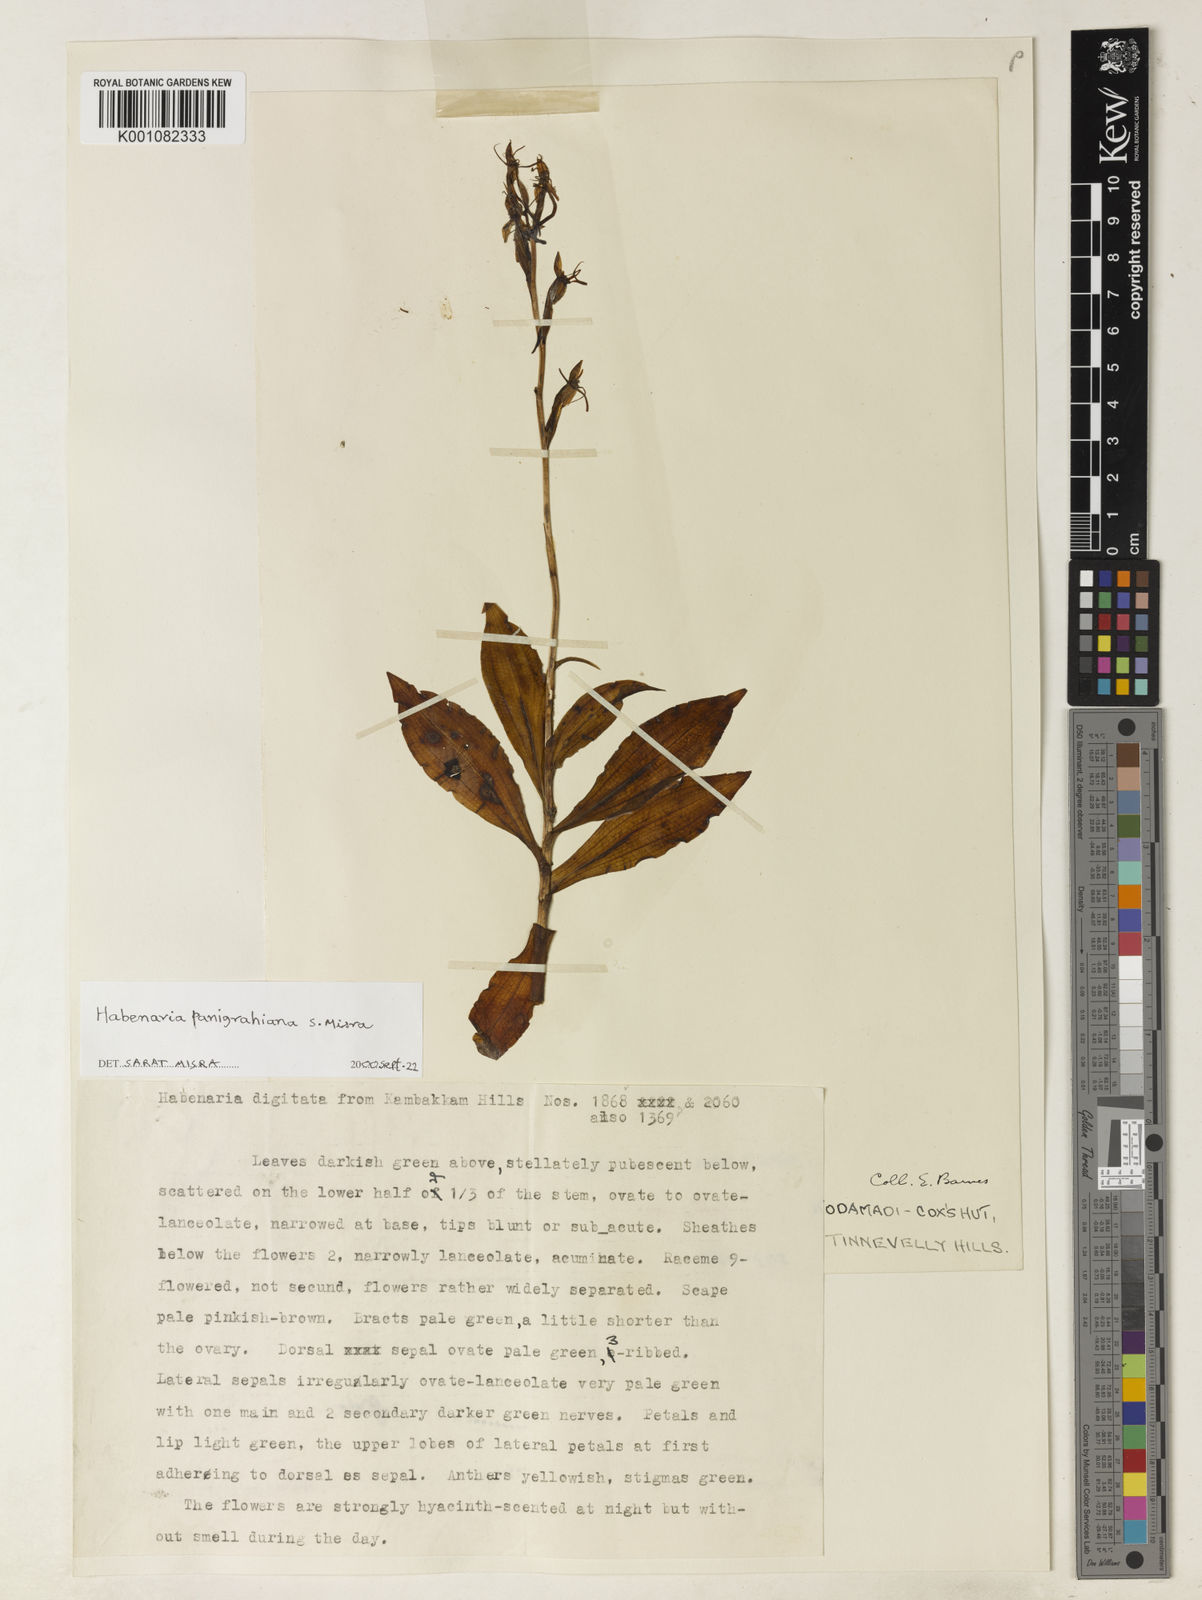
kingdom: Plantae
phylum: Tracheophyta
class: Liliopsida
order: Asparagales
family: Orchidaceae
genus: Habenaria
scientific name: Habenaria panigrahiana
